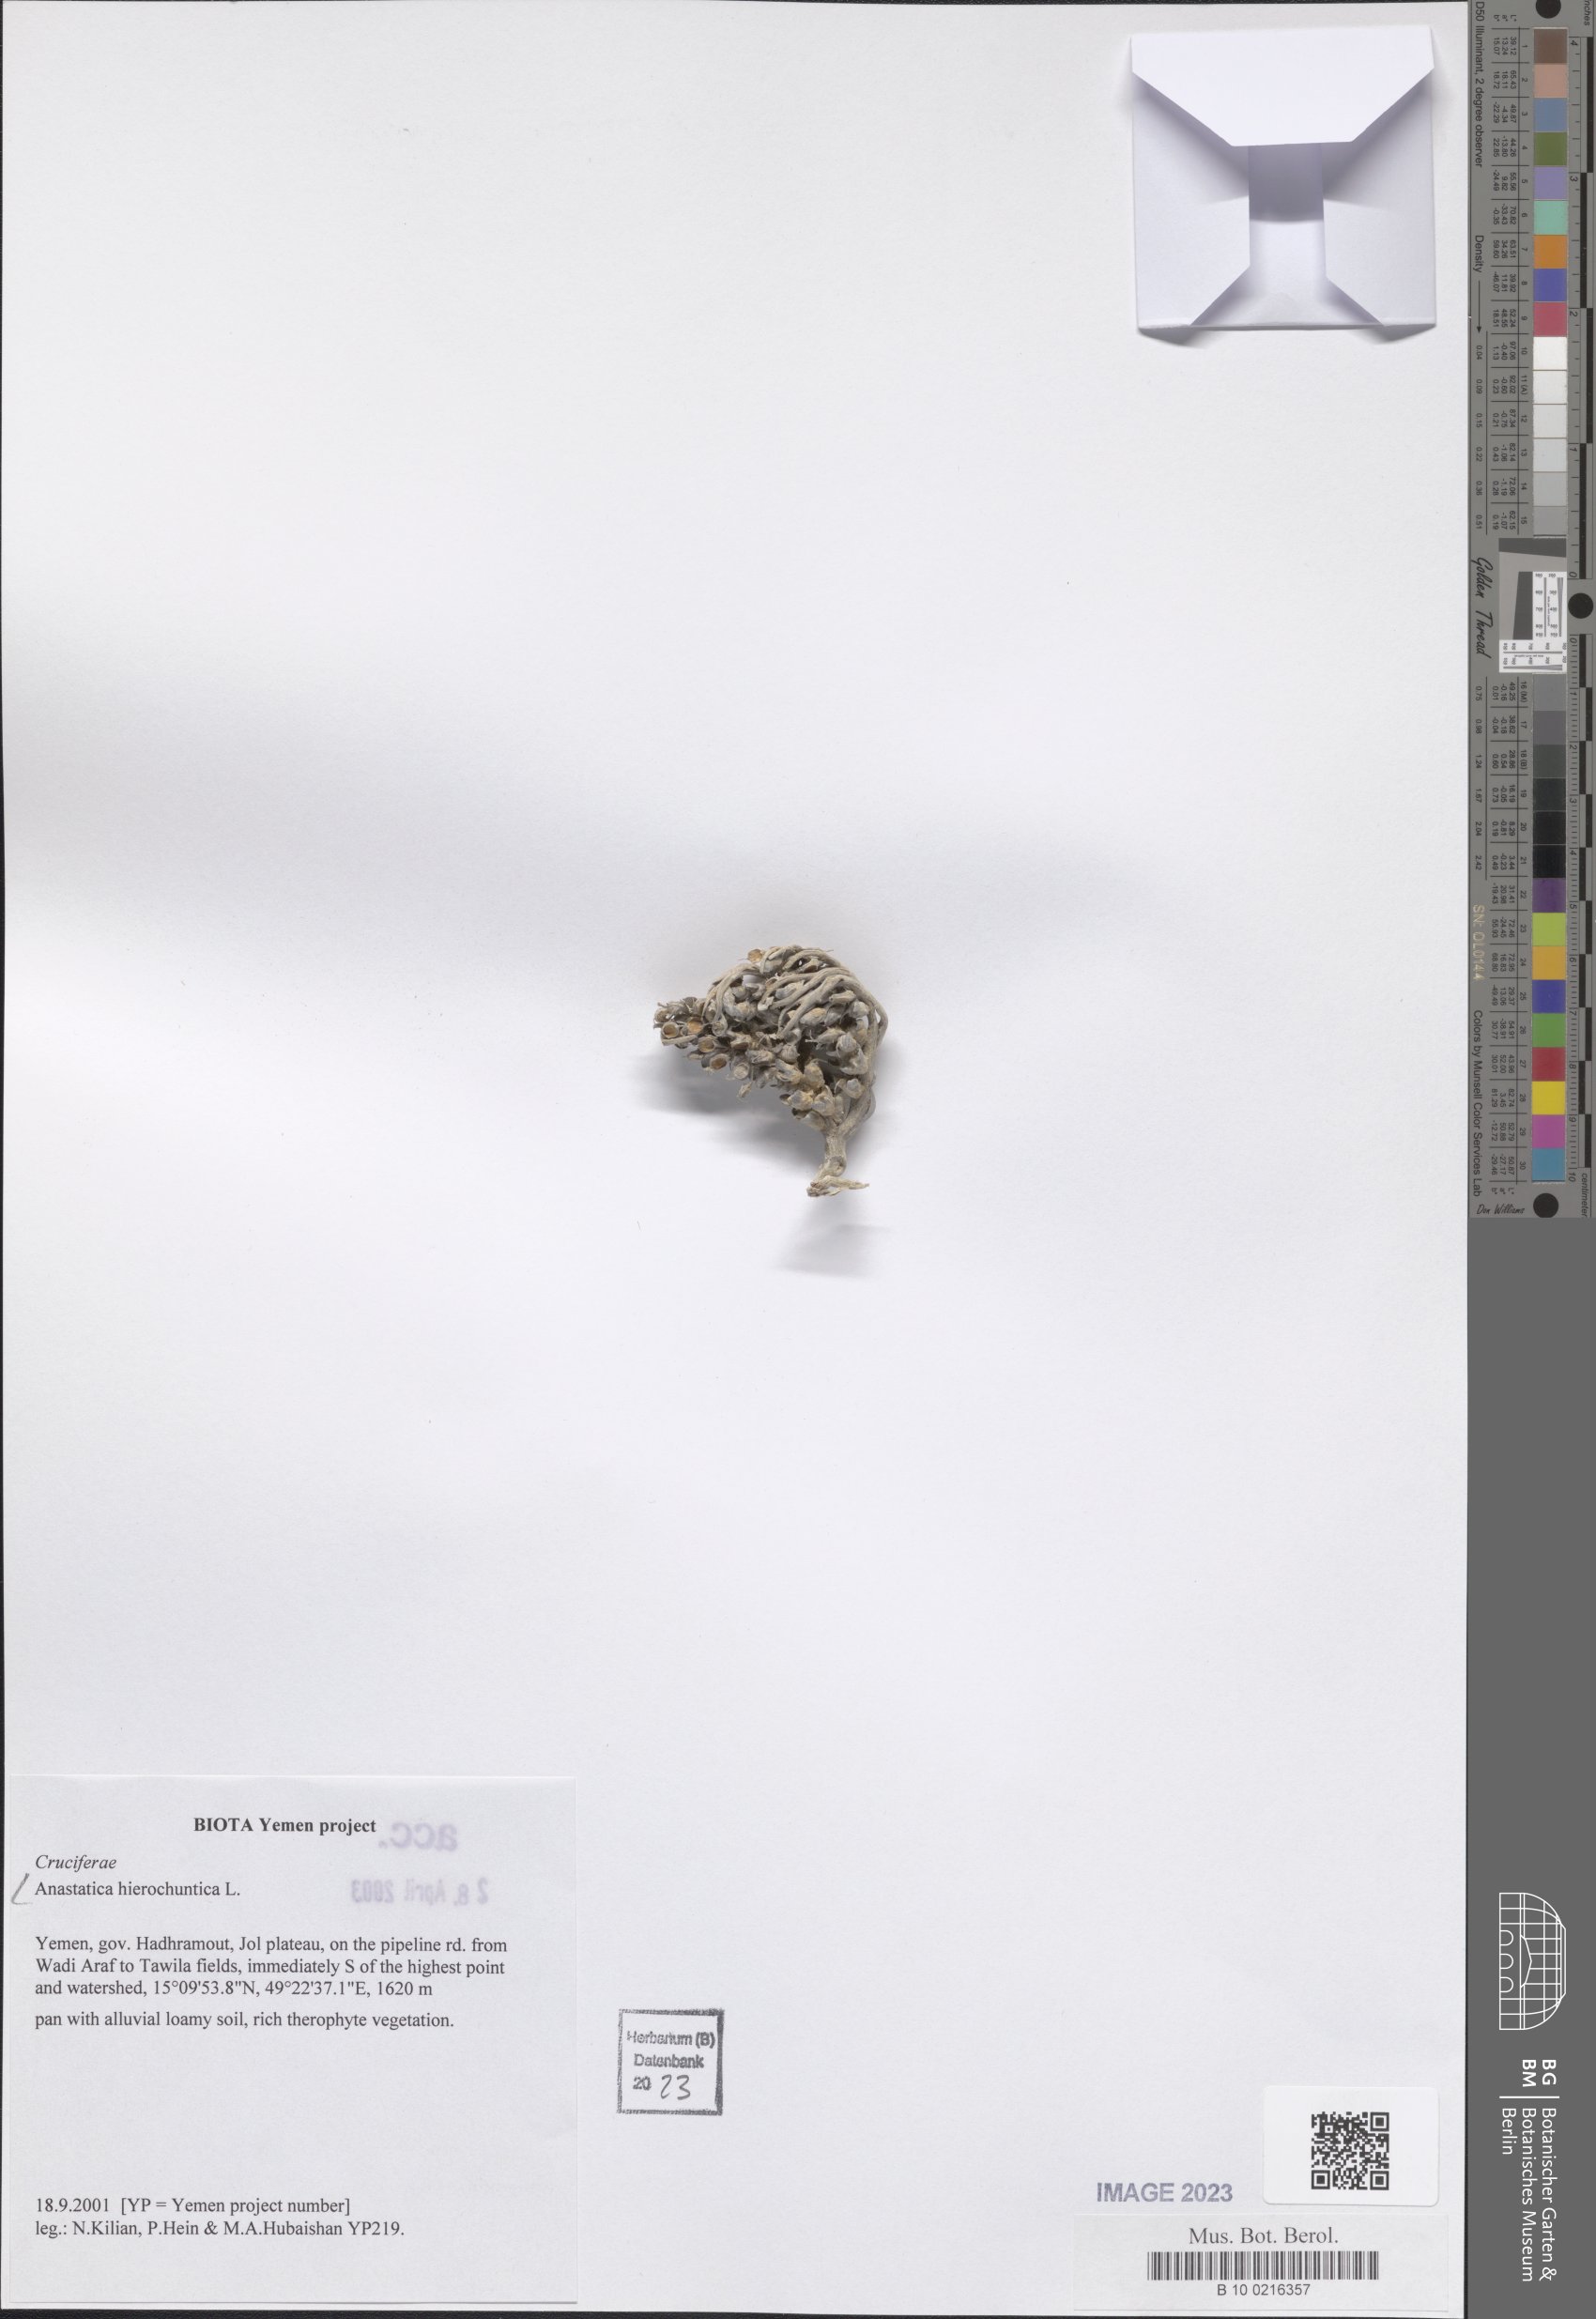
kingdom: Plantae
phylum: Tracheophyta
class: Magnoliopsida
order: Brassicales
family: Brassicaceae
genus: Anastatica
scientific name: Anastatica hierochuntica
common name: Rose-of-jericho
